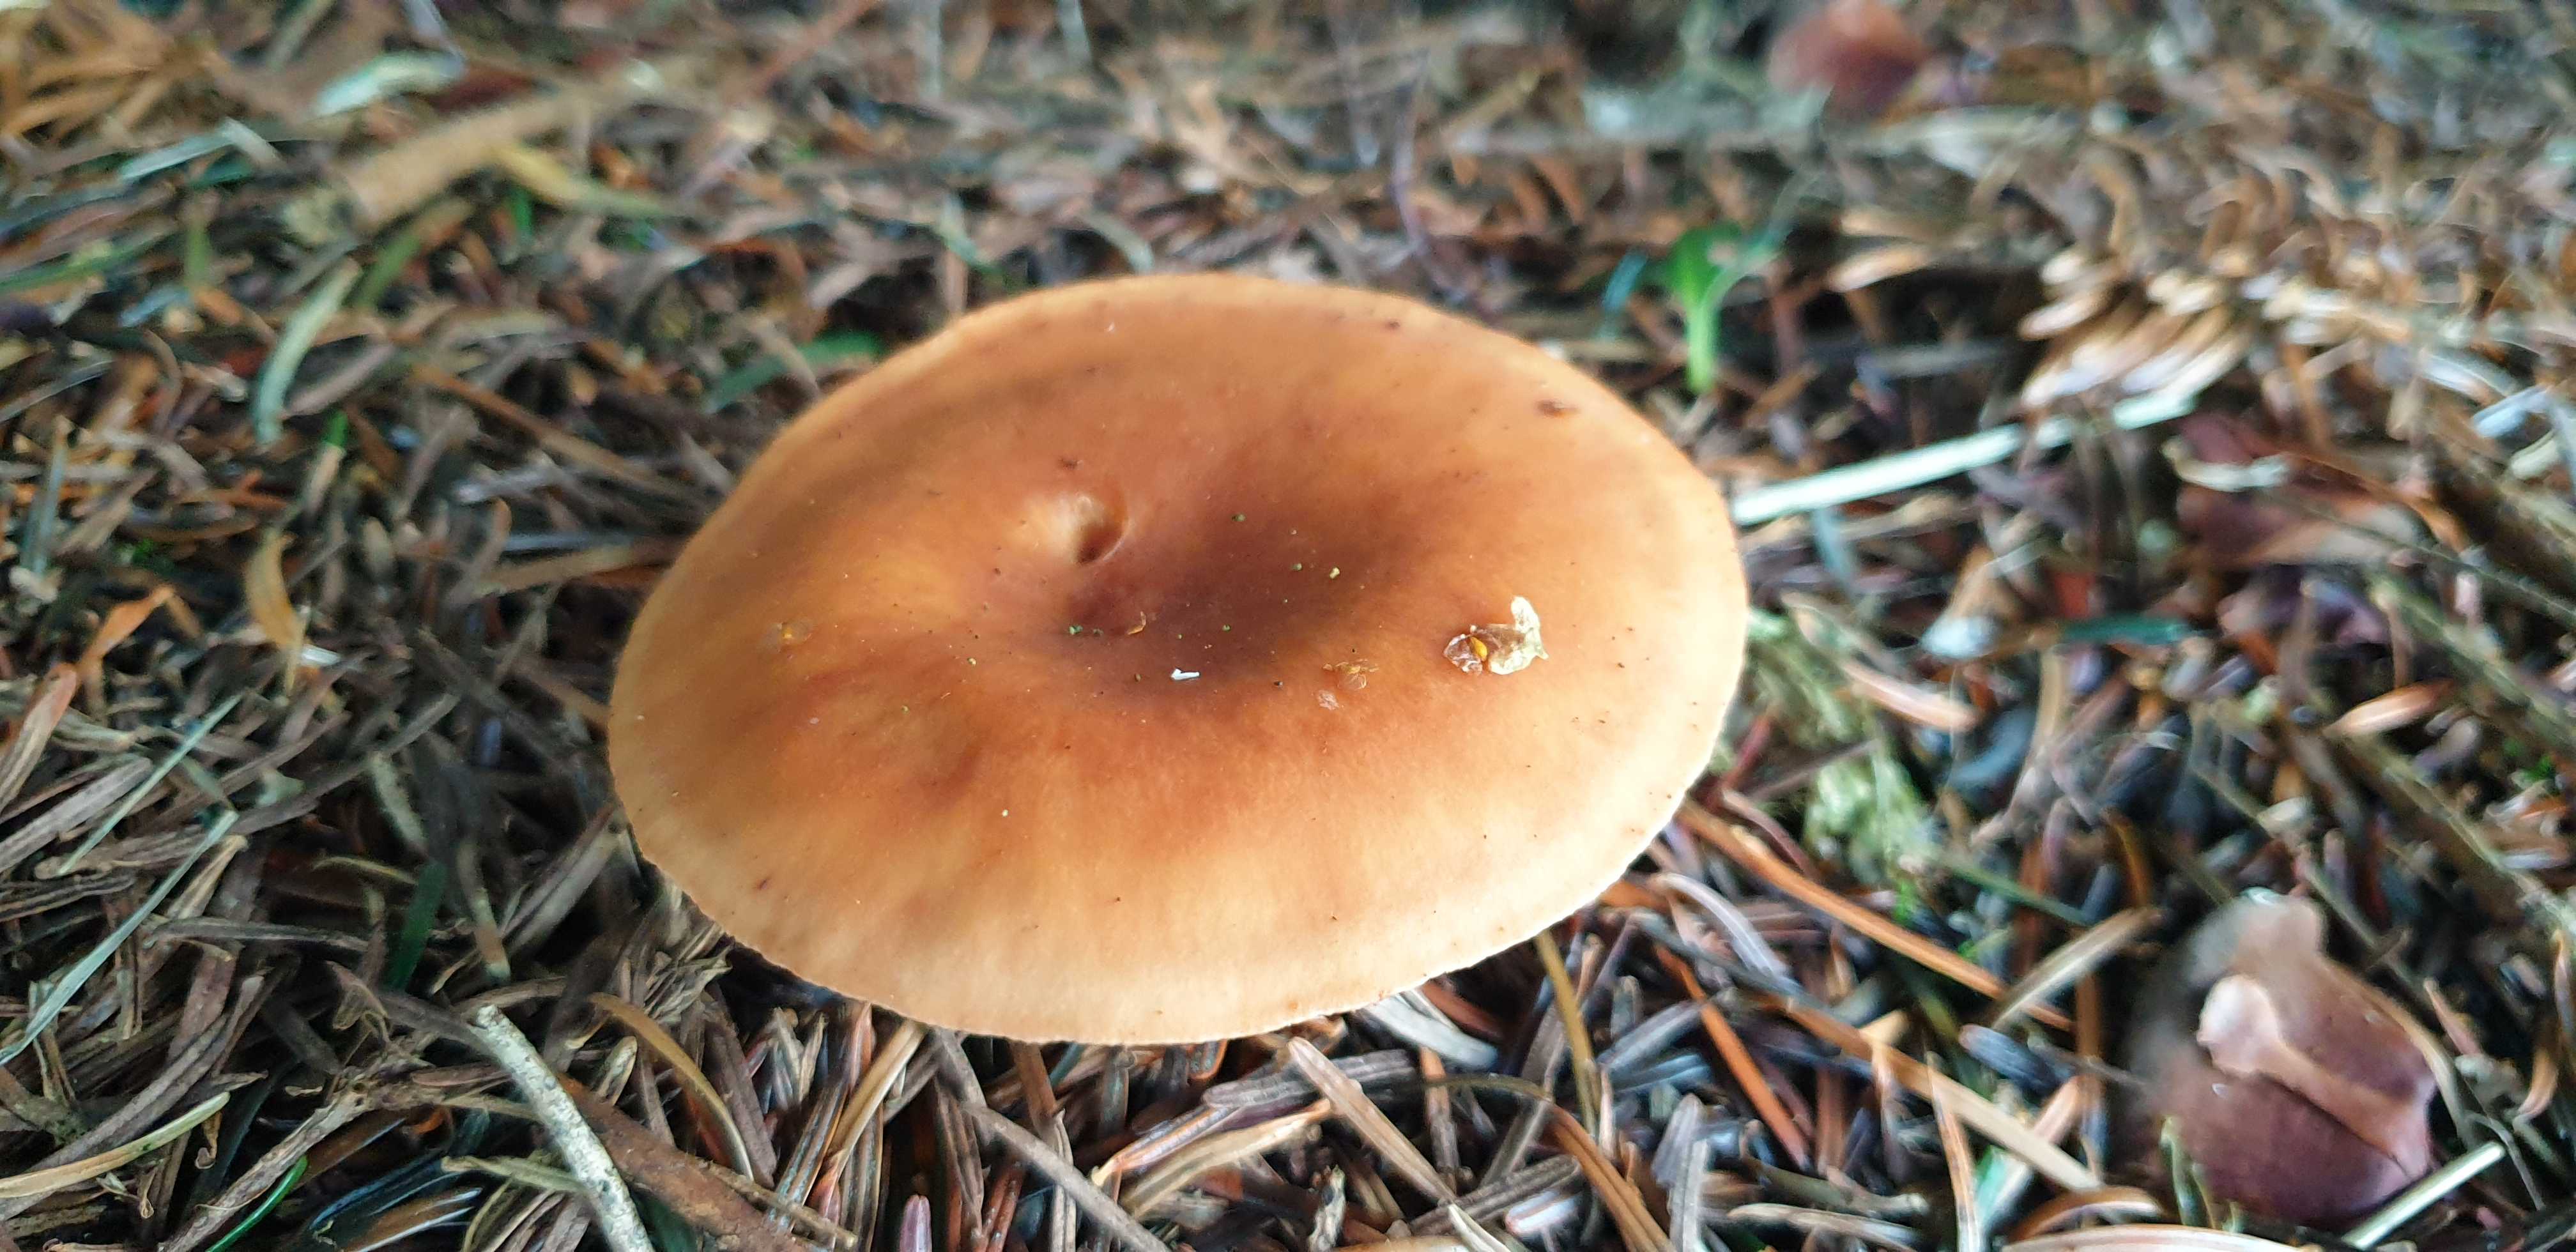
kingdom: Fungi
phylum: Basidiomycota
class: Agaricomycetes
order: Agaricales
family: Tricholomataceae
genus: Paralepista
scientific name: Paralepista flaccida
